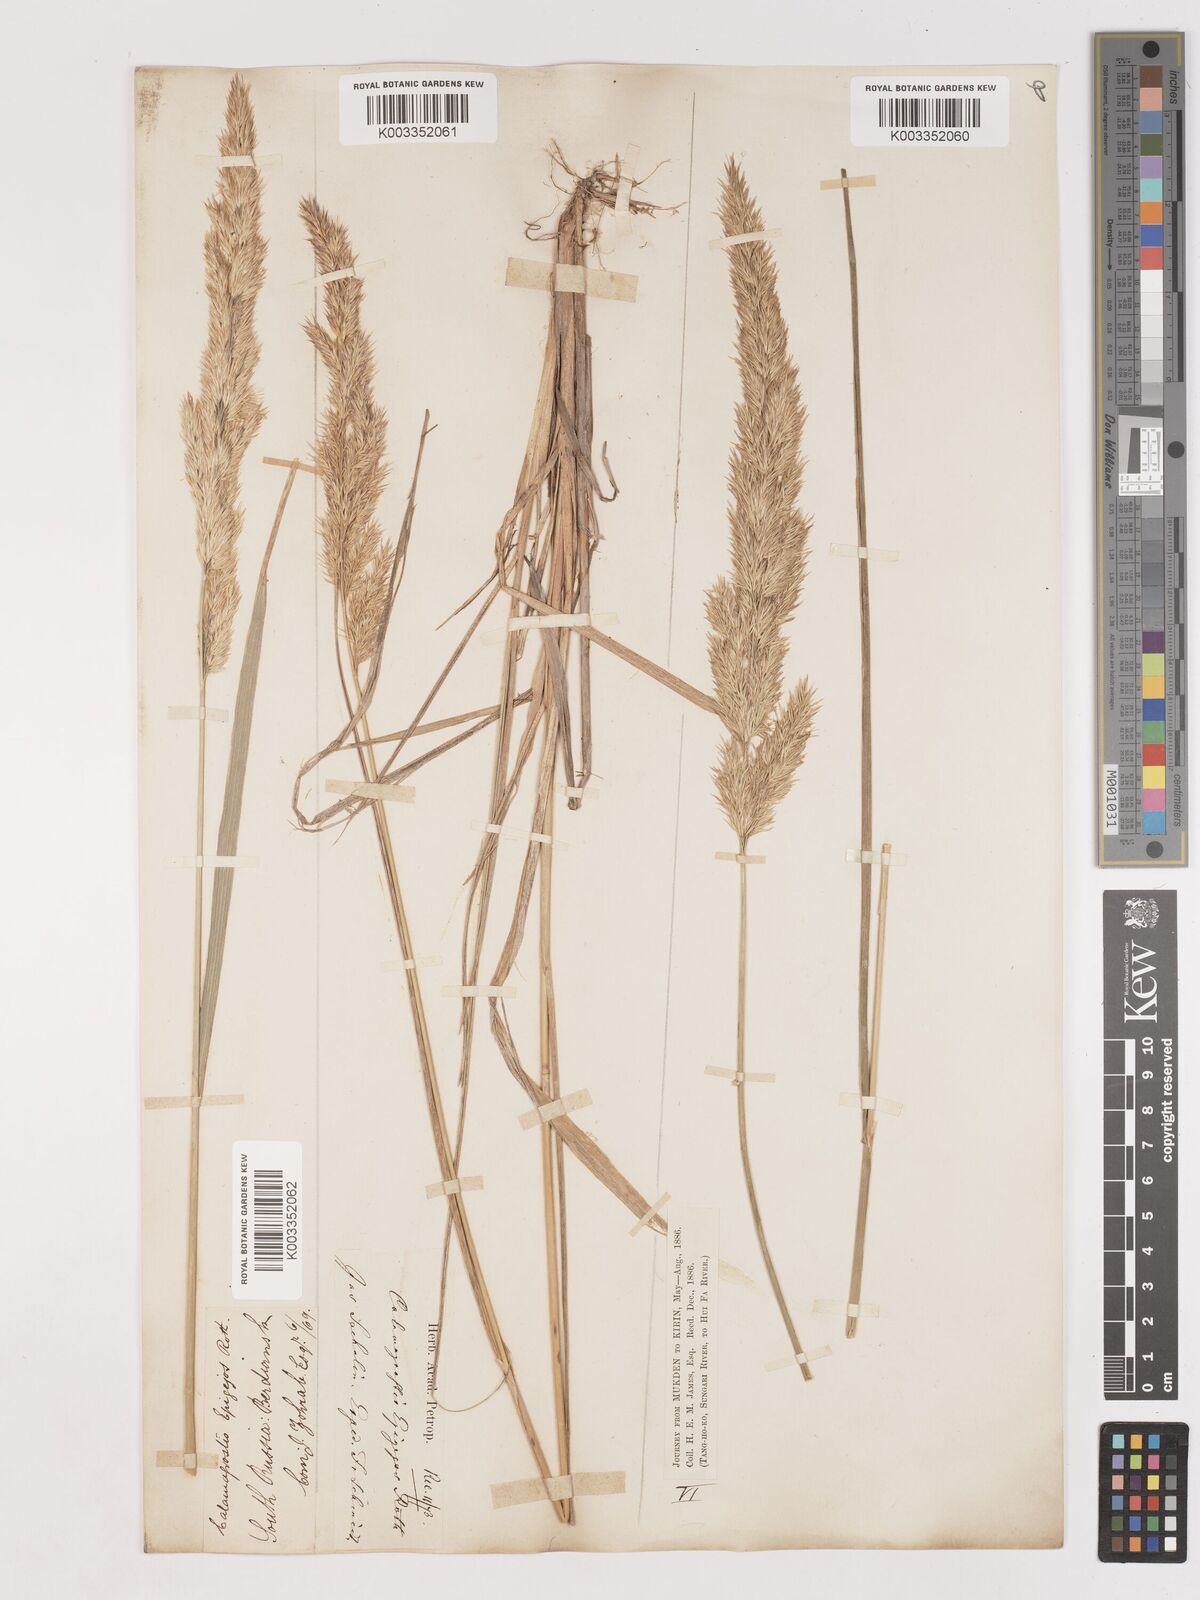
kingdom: Plantae
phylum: Tracheophyta
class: Liliopsida
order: Poales
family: Poaceae
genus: Calamagrostis
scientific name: Calamagrostis epigejos
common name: Wood small-reed
